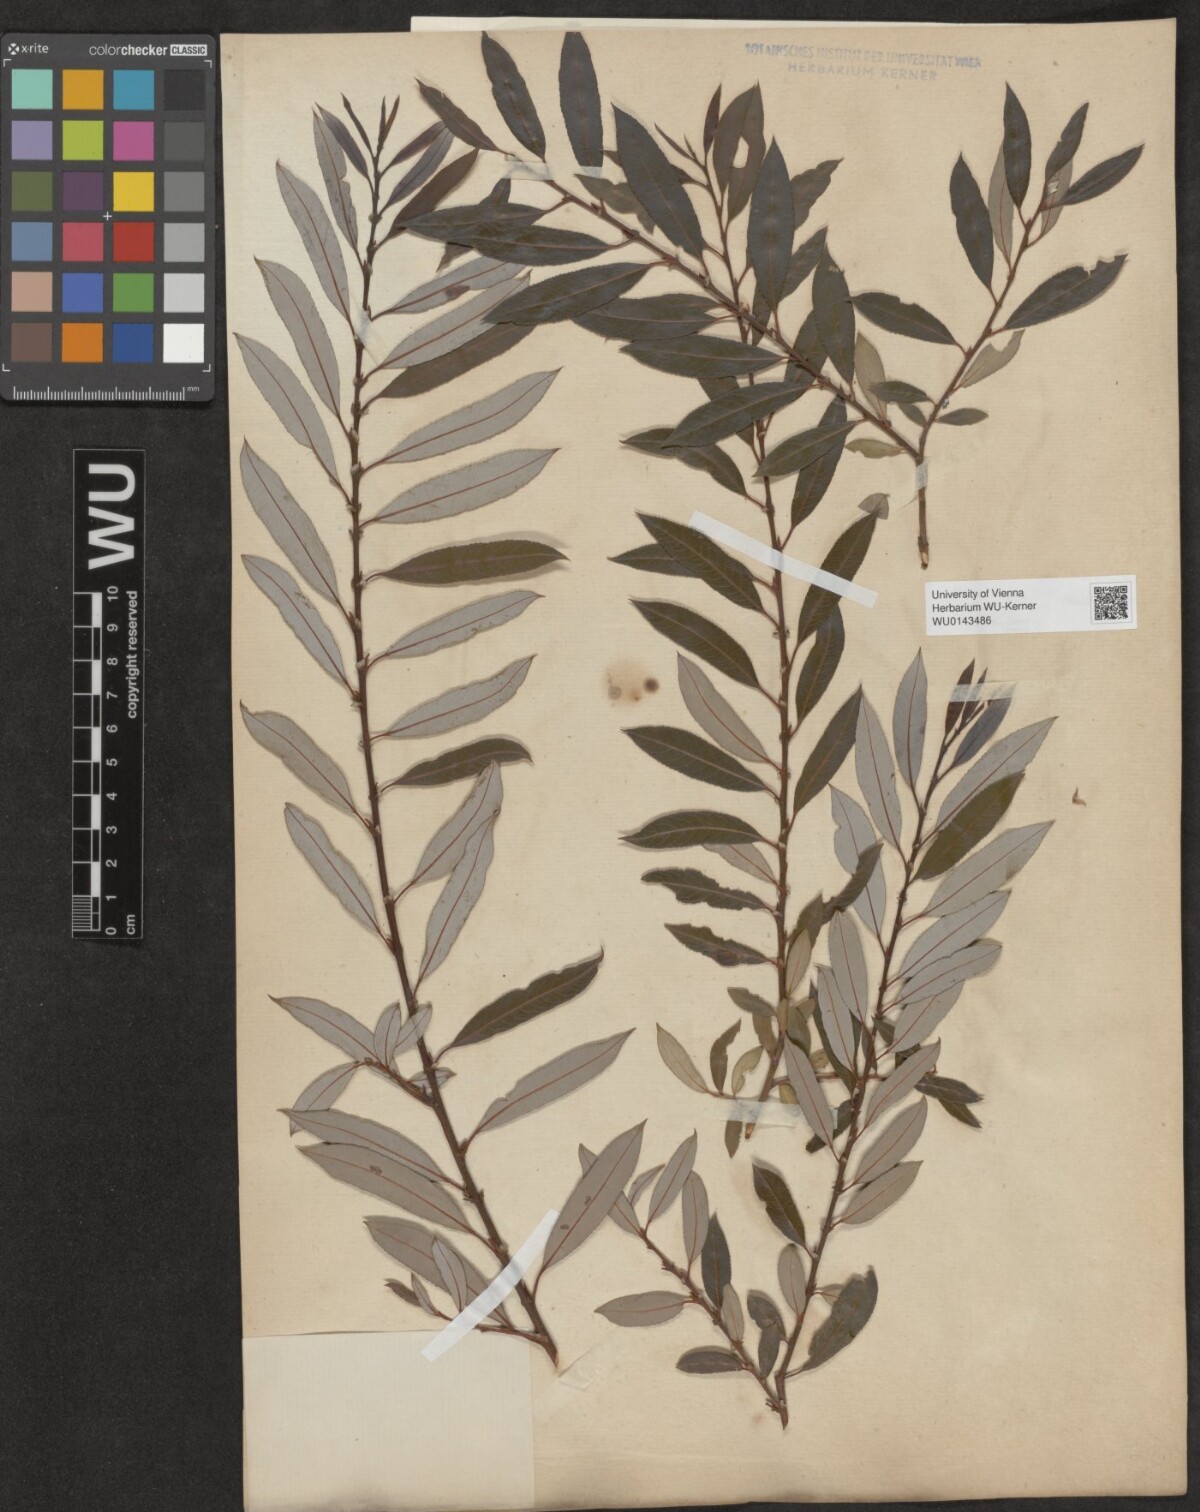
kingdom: Plantae
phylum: Tracheophyta
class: Magnoliopsida
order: Malpighiales
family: Salicaceae
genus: Salix
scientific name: Salix triandra
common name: Almond willow
